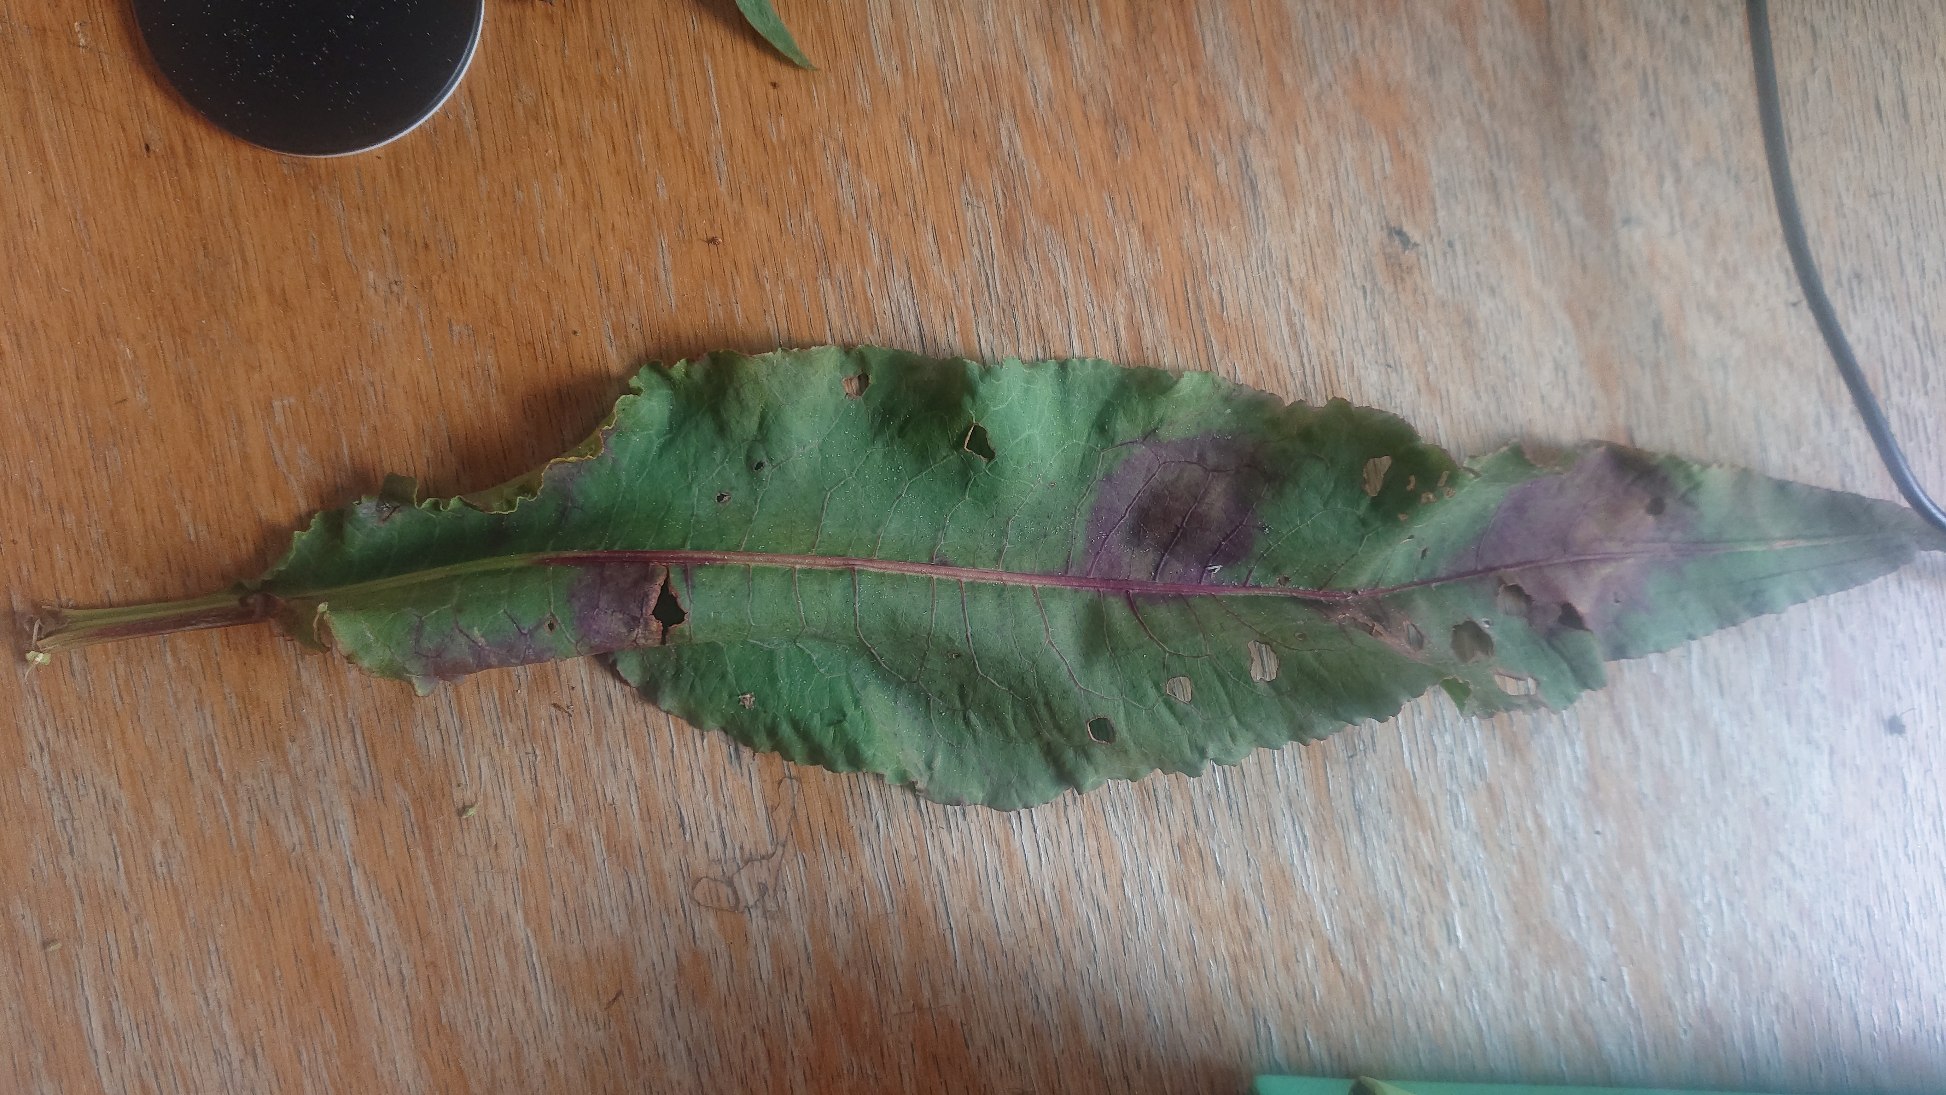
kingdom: Plantae
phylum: Tracheophyta
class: Magnoliopsida
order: Caryophyllales
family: Polygonaceae
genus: Rumex
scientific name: Rumex hydrolapathum
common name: Vand-skræppe
